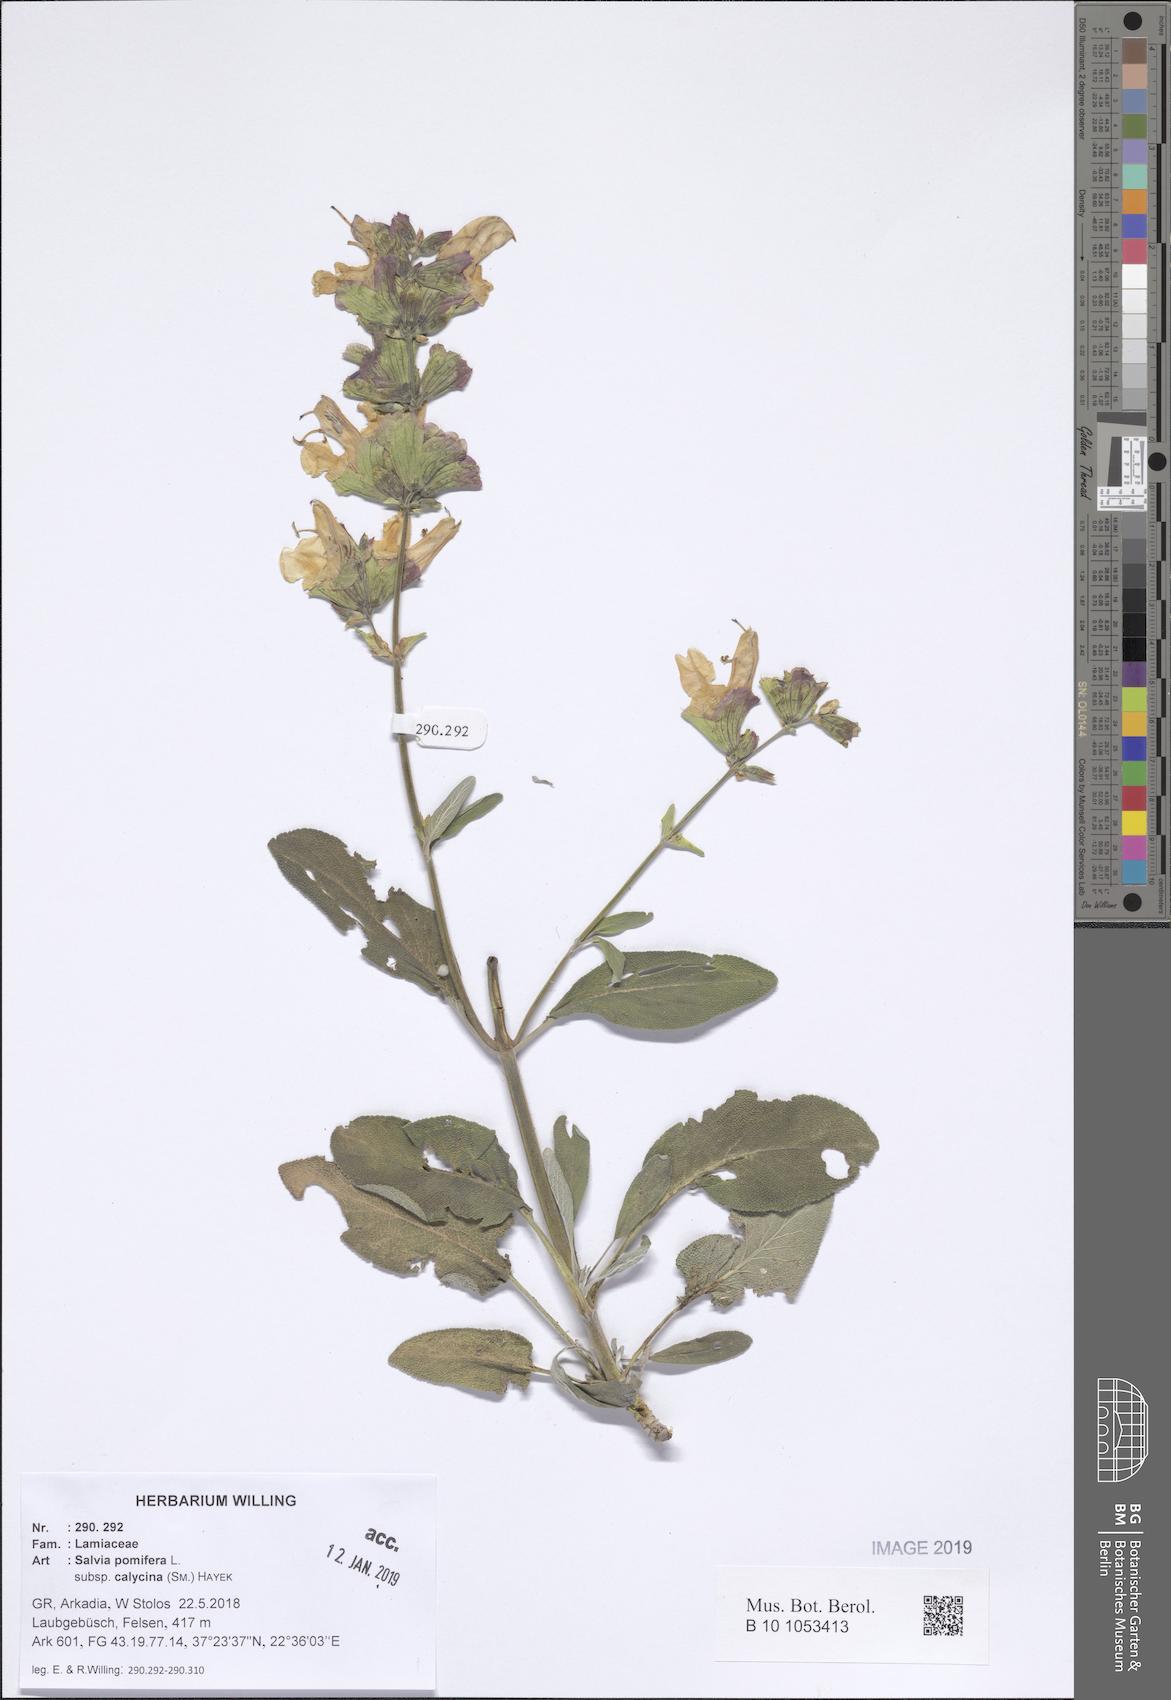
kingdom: Plantae
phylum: Tracheophyta
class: Magnoliopsida
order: Lamiales
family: Lamiaceae
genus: Salvia
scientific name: Salvia pomifera
